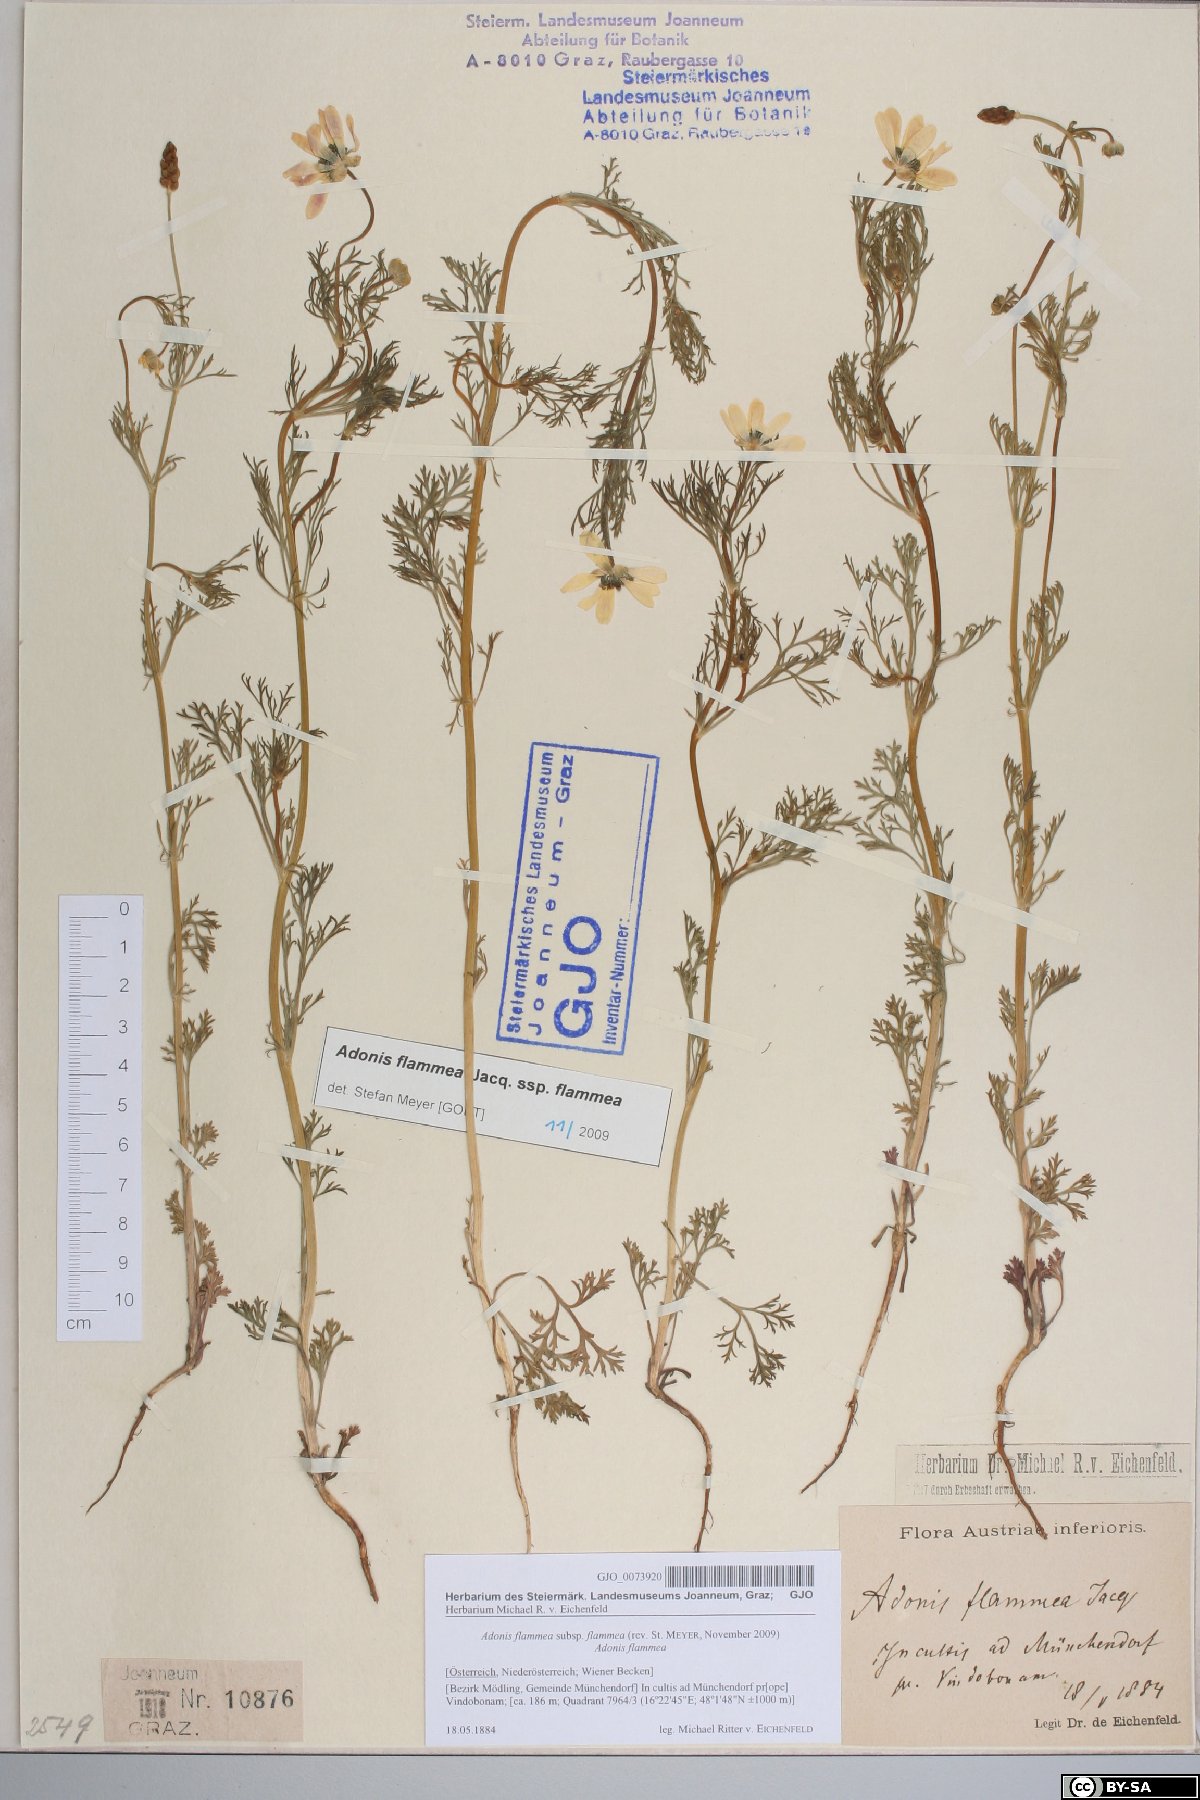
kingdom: Plantae
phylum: Tracheophyta
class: Magnoliopsida
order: Ranunculales
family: Ranunculaceae
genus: Adonis
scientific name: Adonis flammea
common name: Large pheasant's-eye
